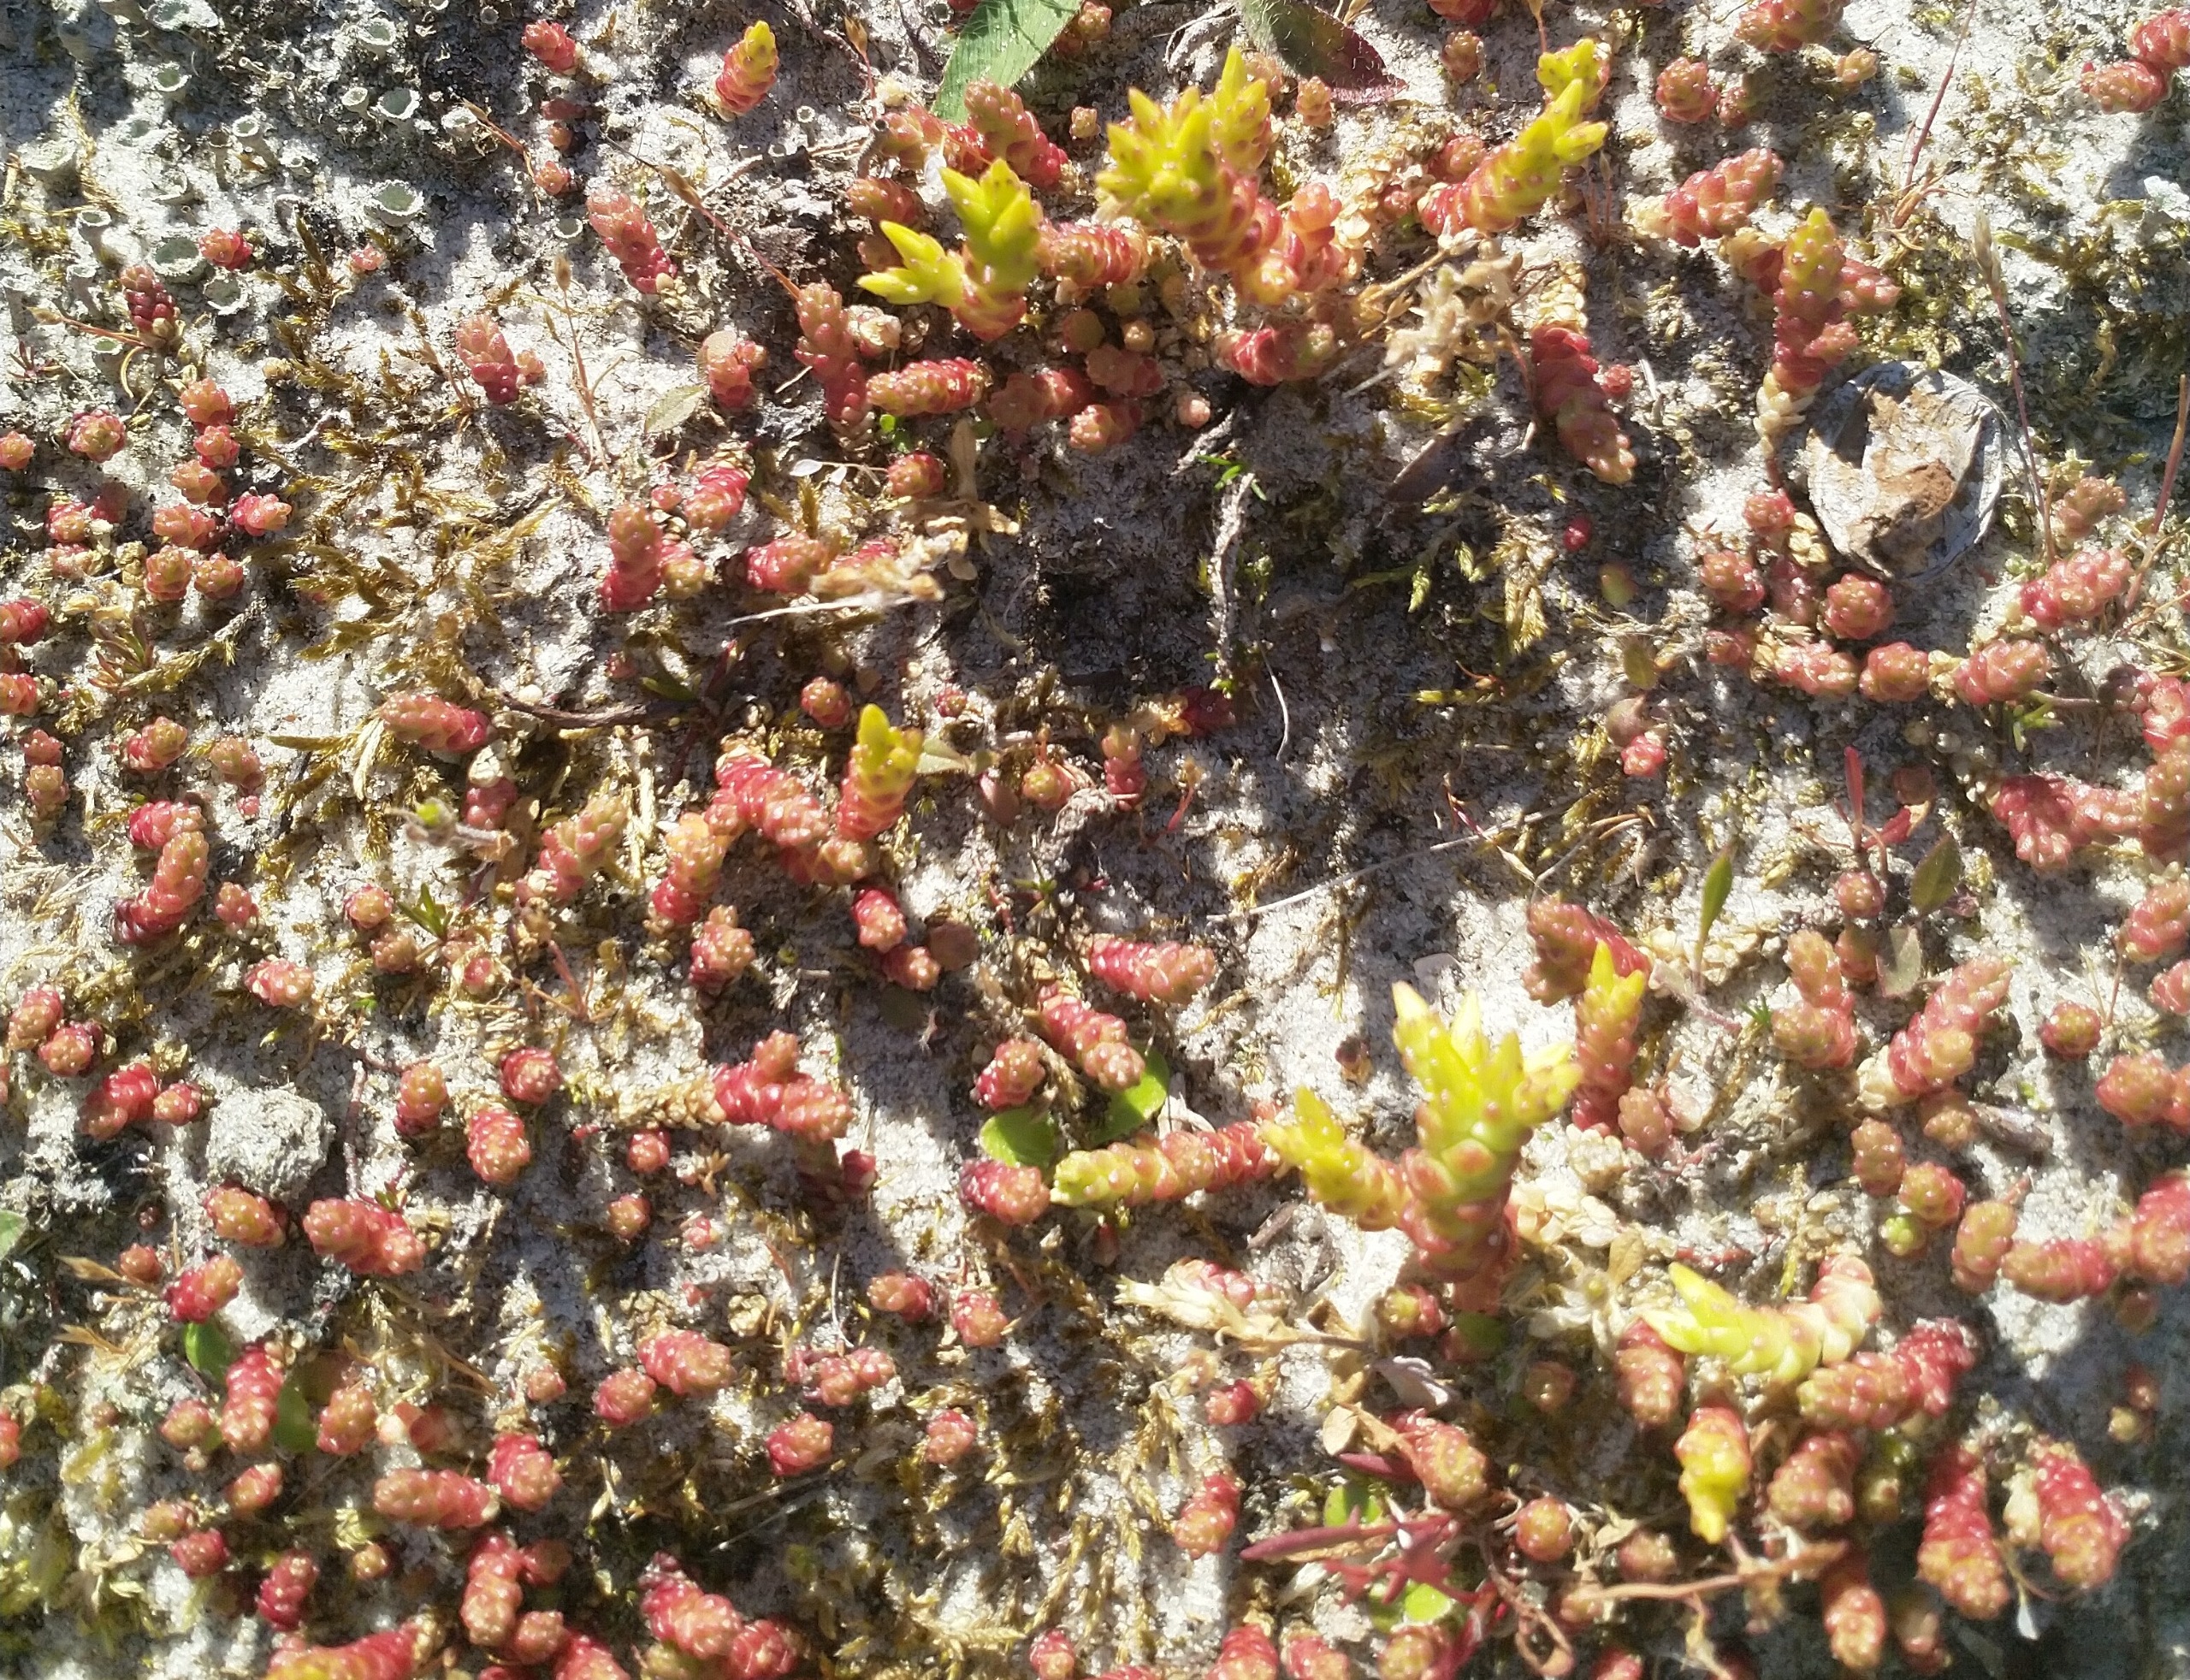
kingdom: Plantae
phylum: Tracheophyta
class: Magnoliopsida
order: Saxifragales
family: Crassulaceae
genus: Sedum
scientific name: Sedum acre
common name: Bidende stenurt
